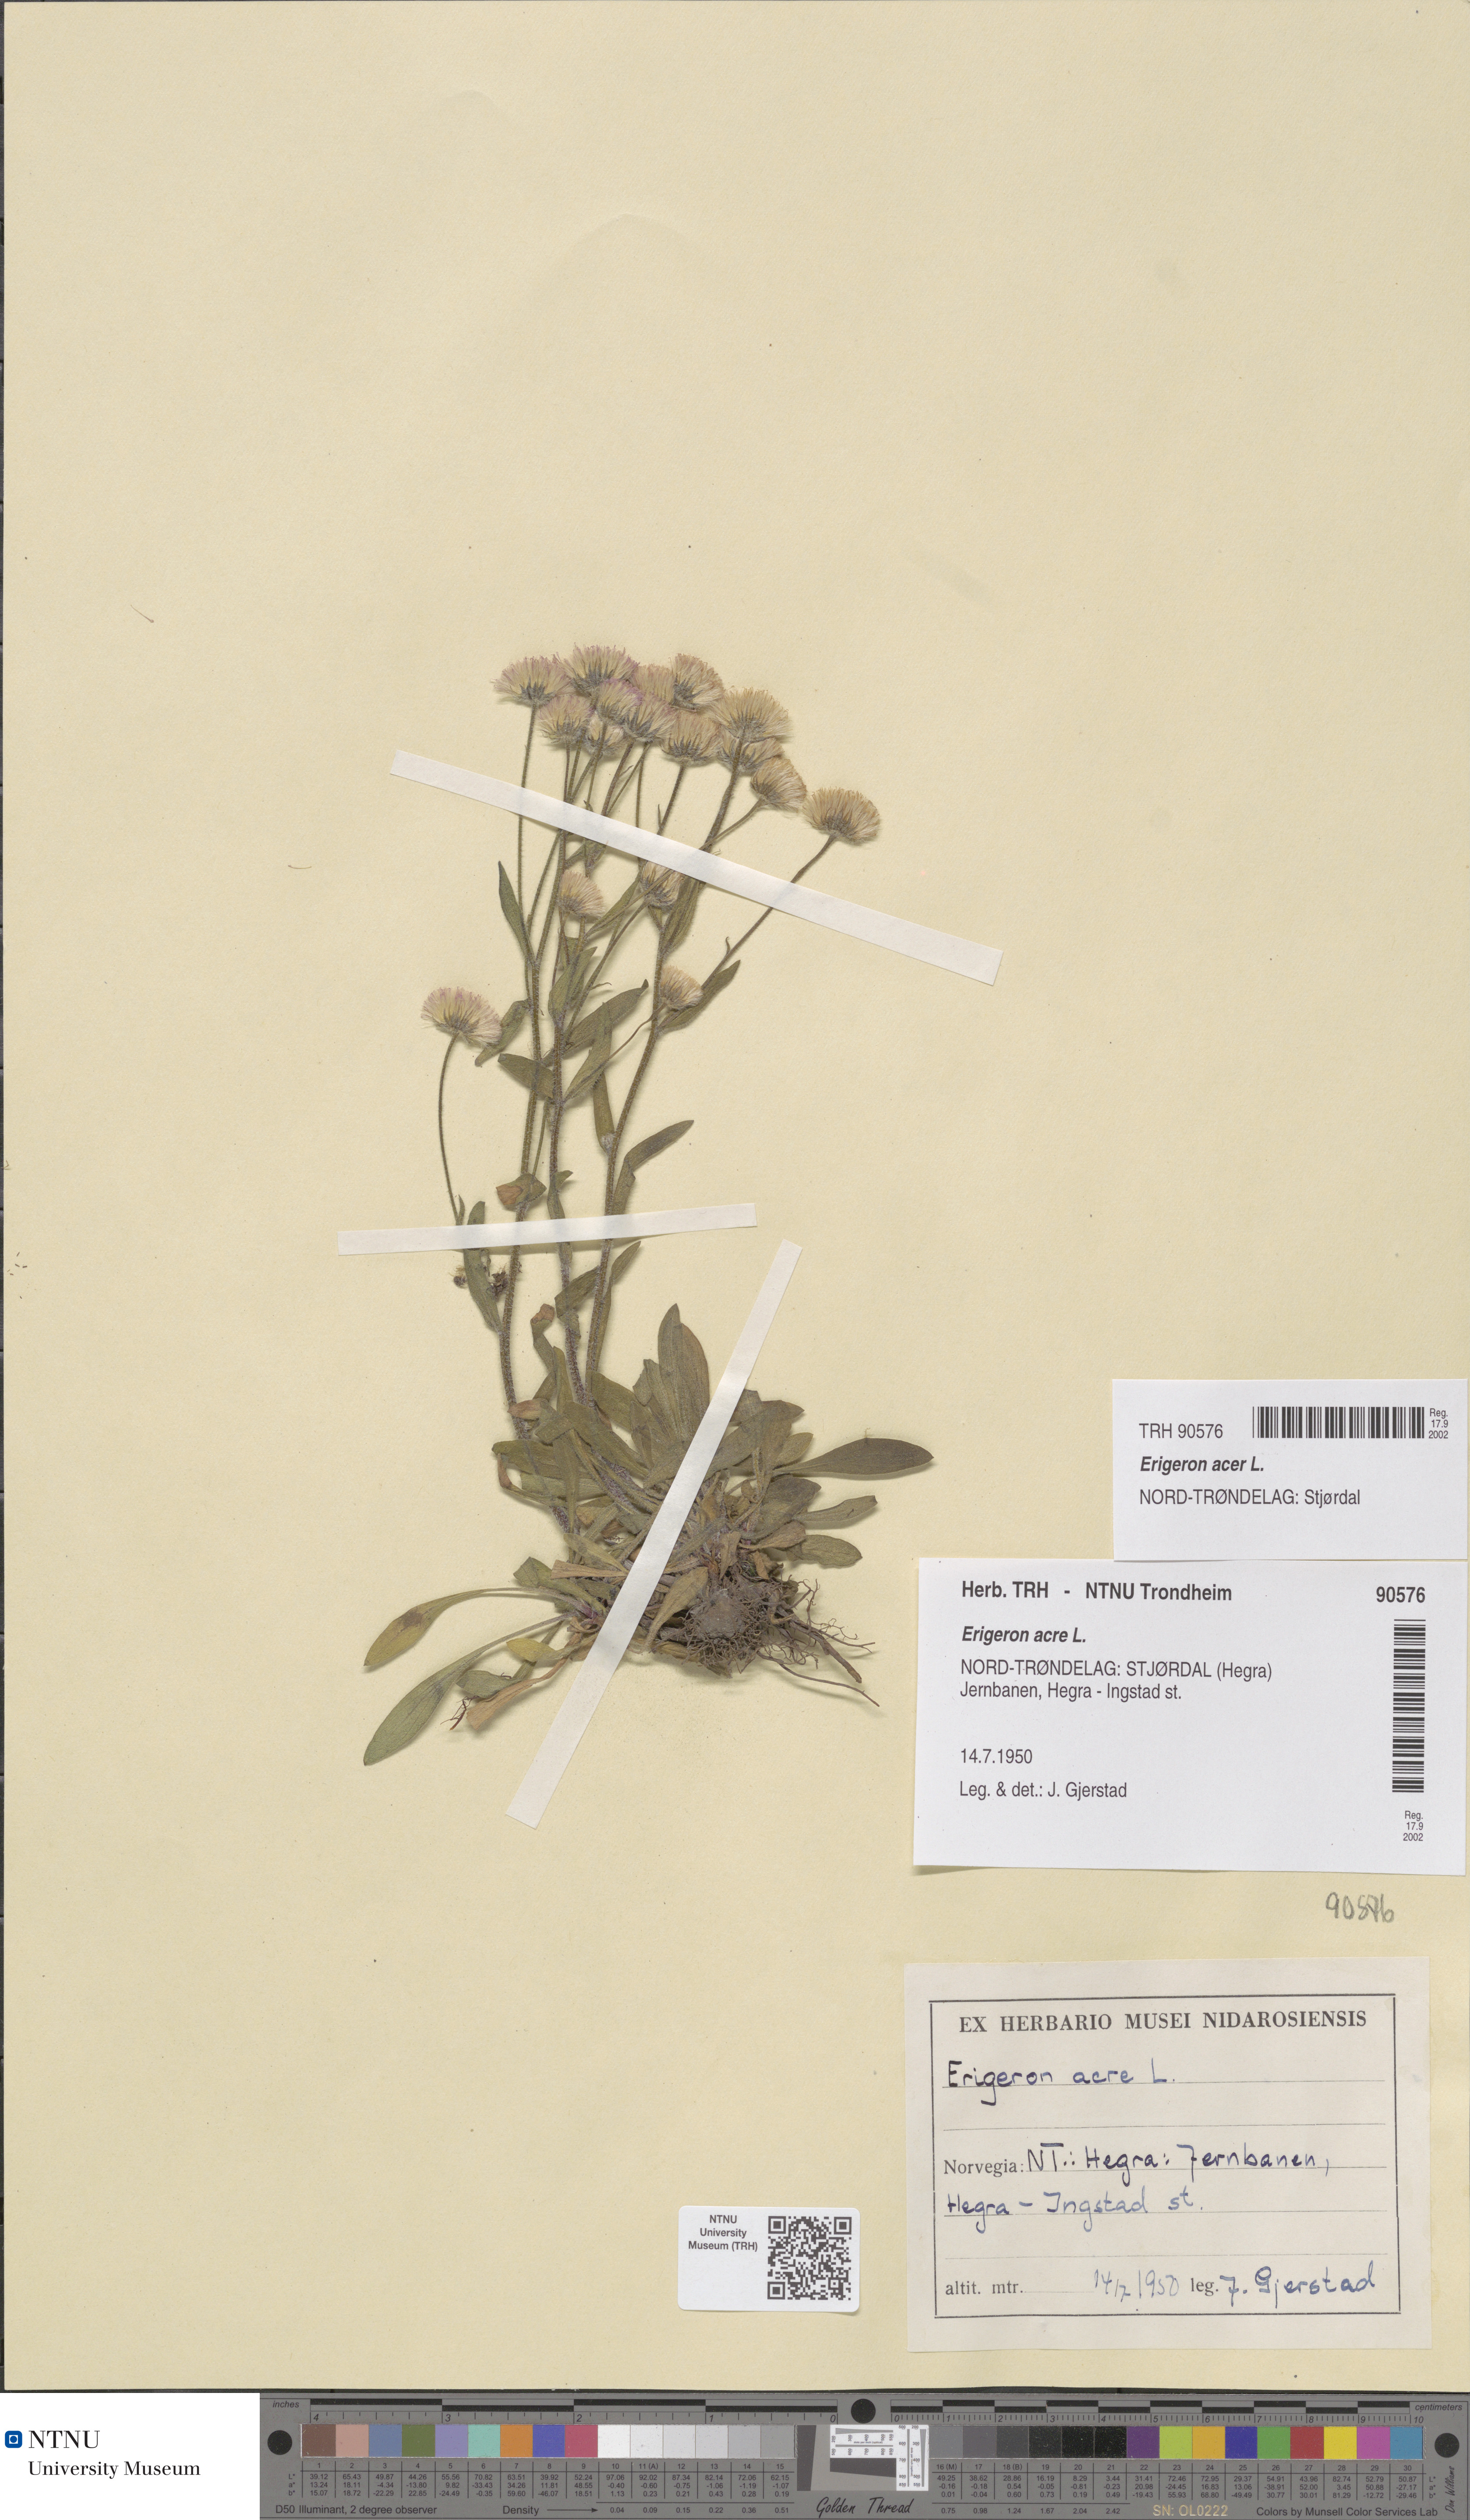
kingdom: Plantae
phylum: Tracheophyta
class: Magnoliopsida
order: Asterales
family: Asteraceae
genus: Erigeron
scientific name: Erigeron acris
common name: Blue fleabane
